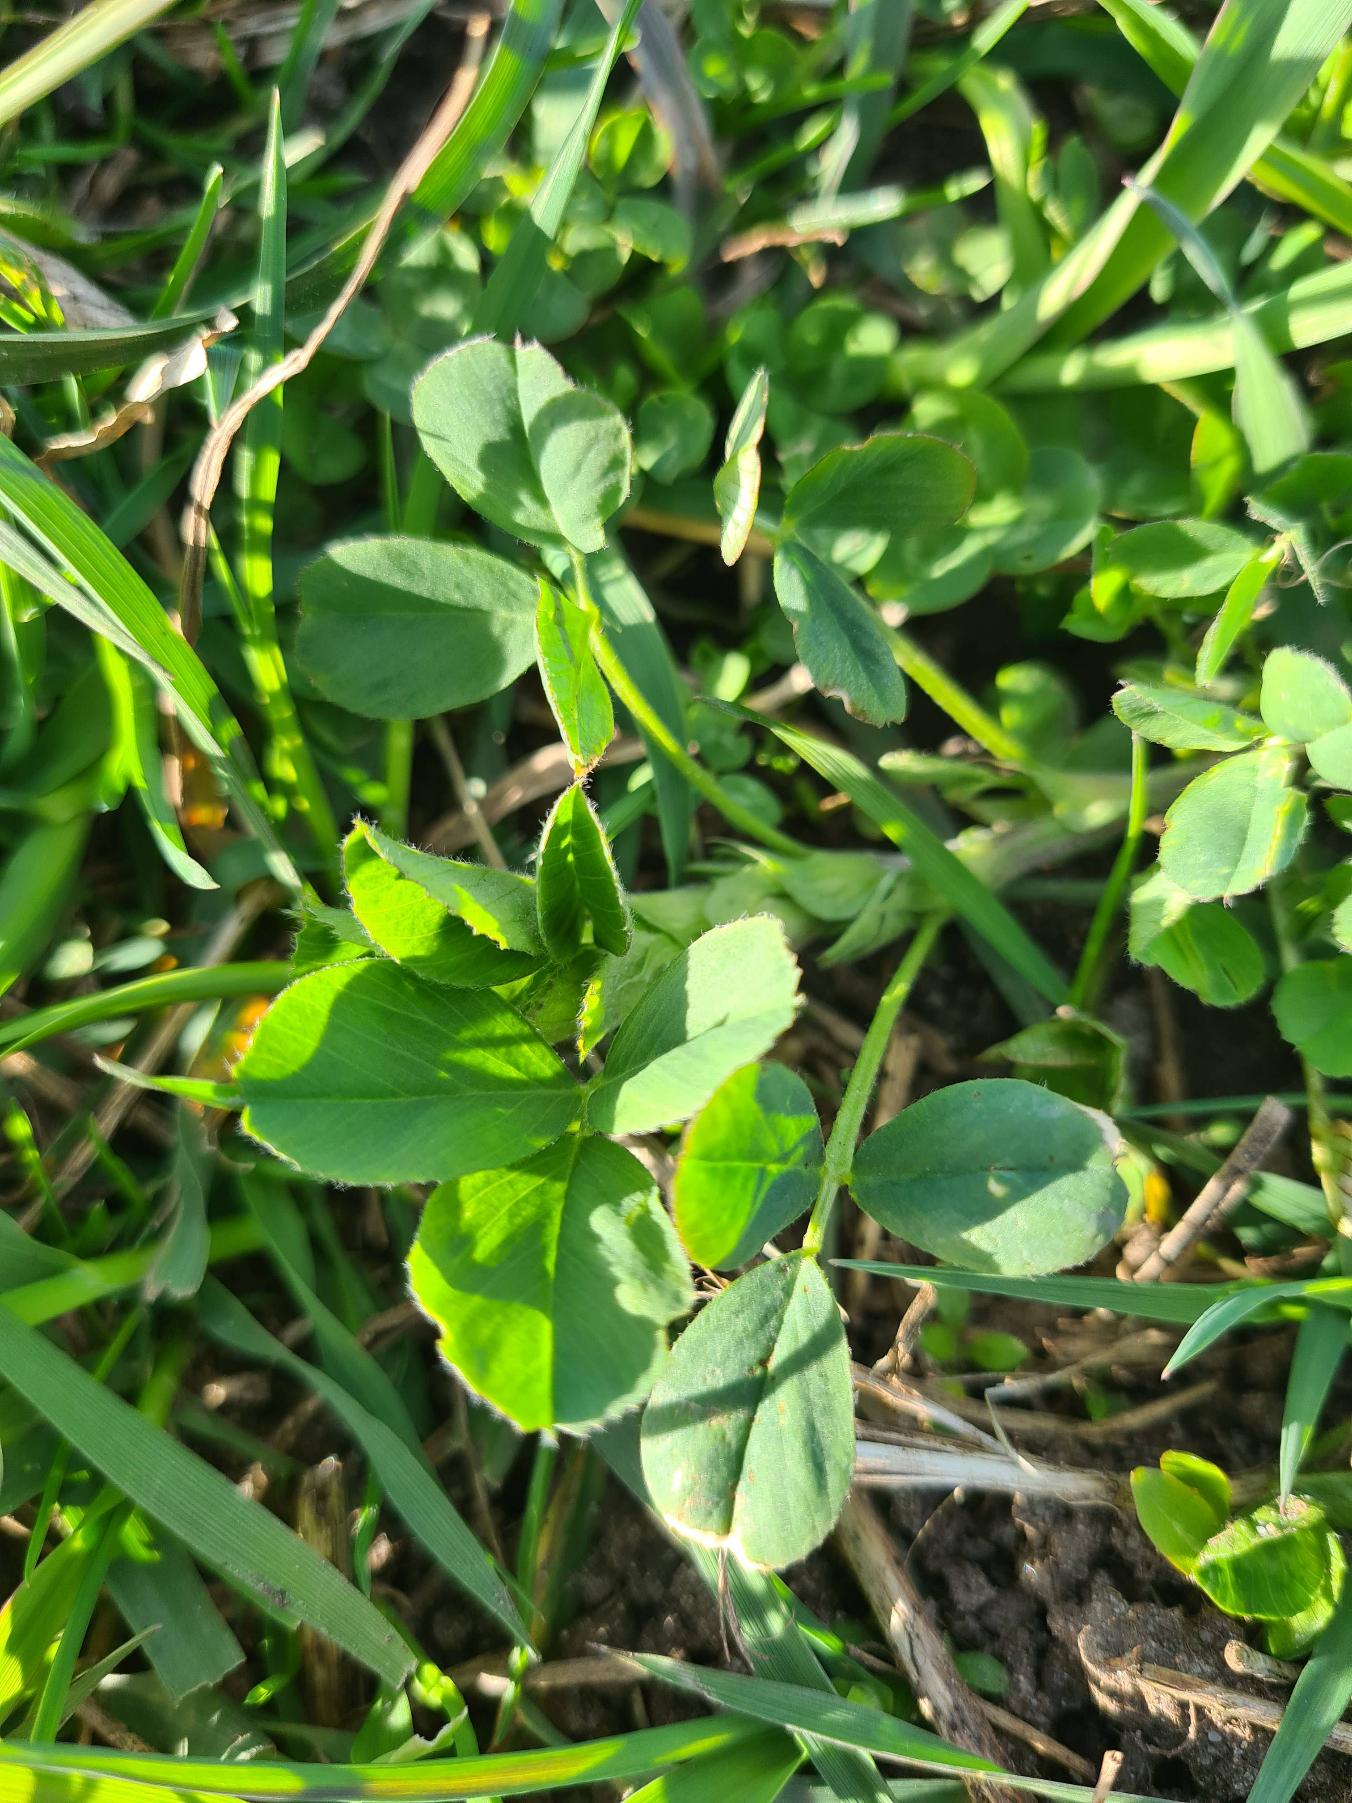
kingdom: Plantae
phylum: Tracheophyta
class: Magnoliopsida
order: Fabales
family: Fabaceae
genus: Medicago
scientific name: Medicago sativa
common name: Lucerne
